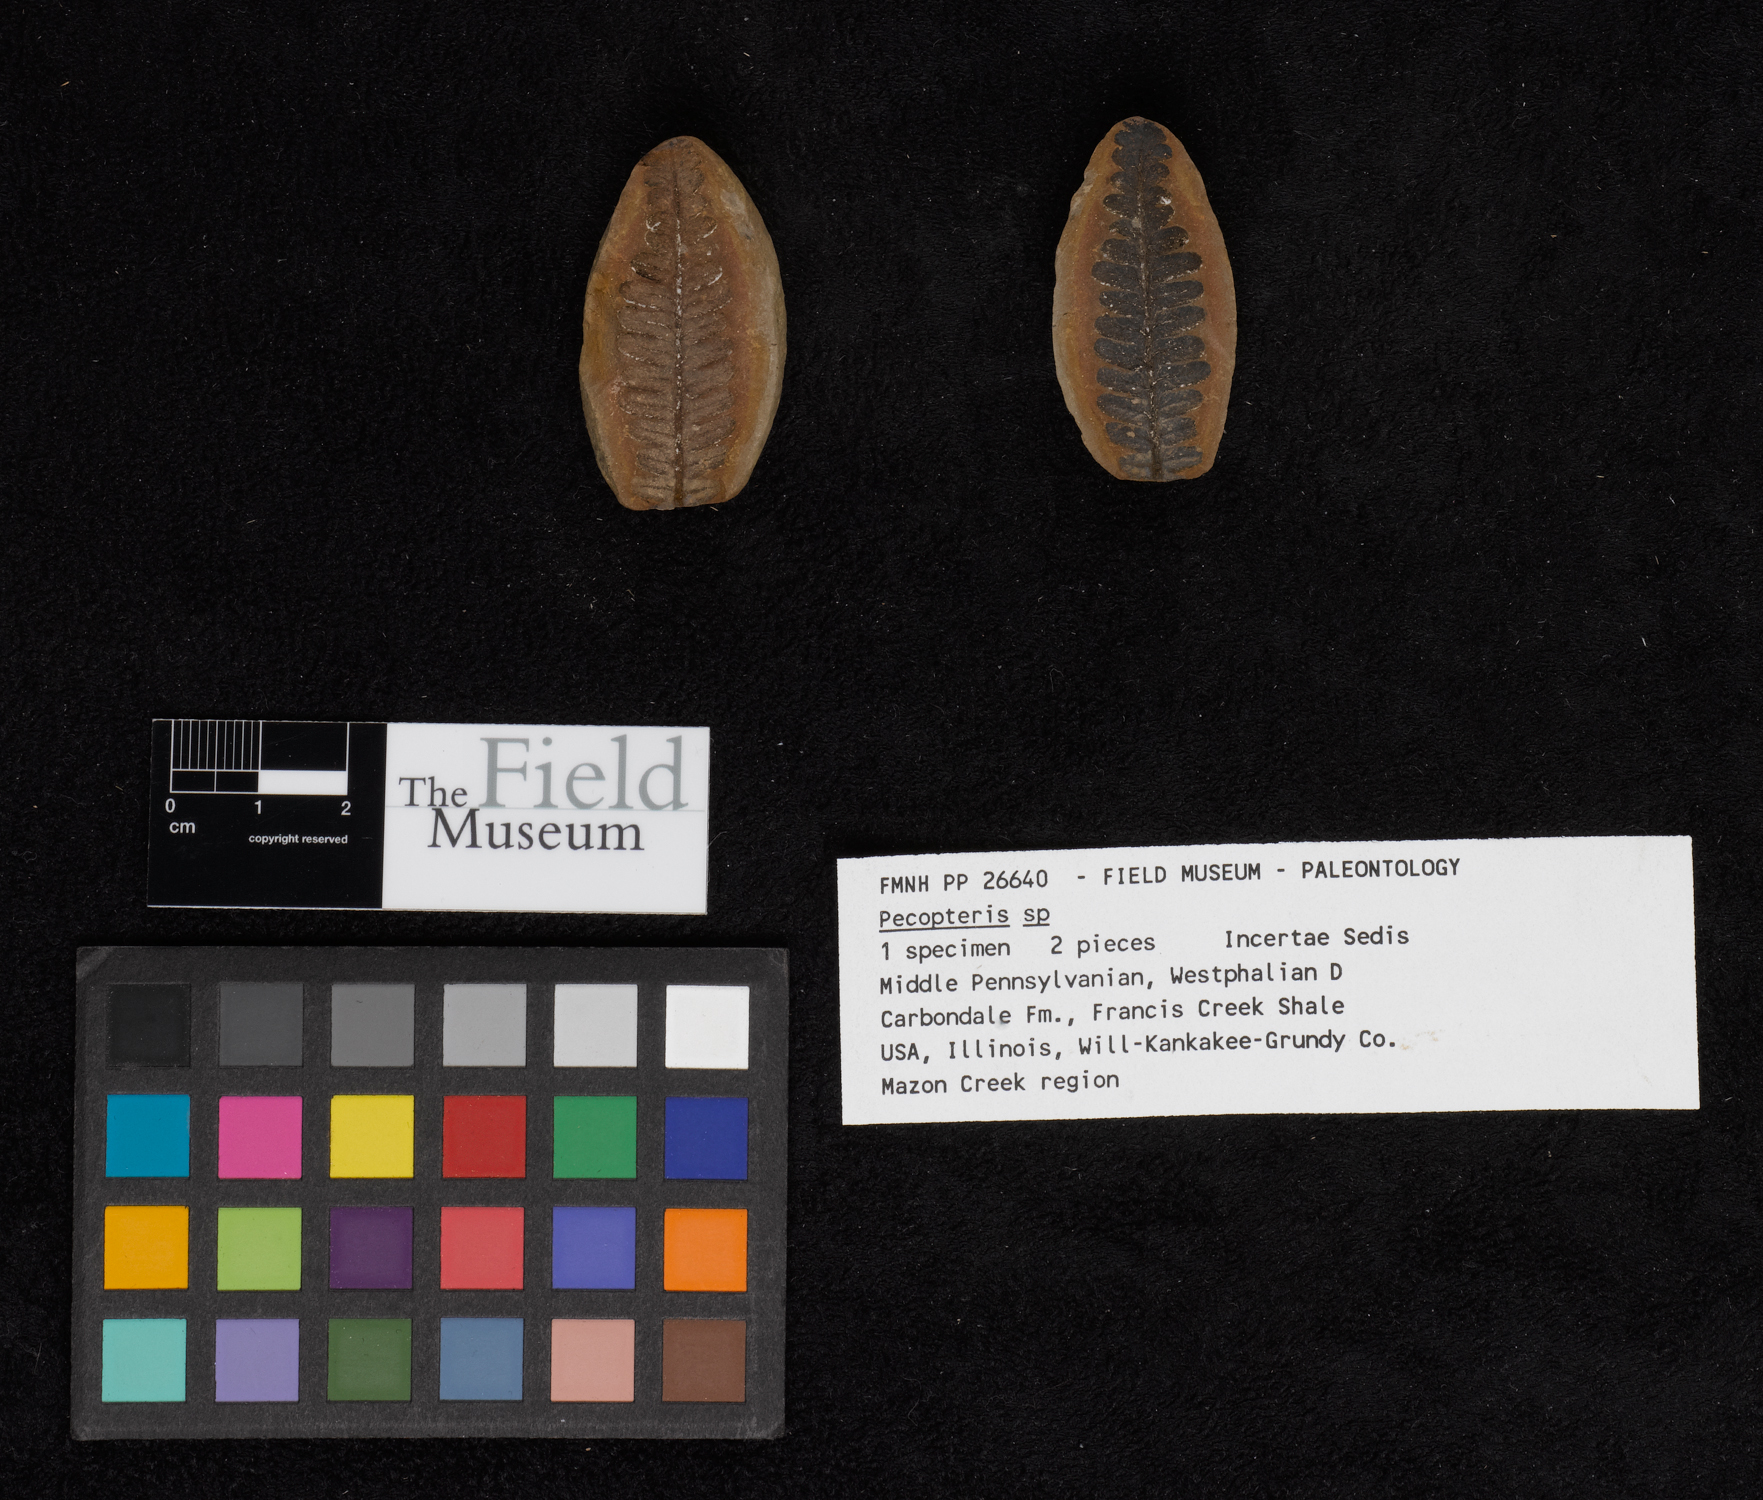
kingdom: Plantae
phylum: Tracheophyta
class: Polypodiopsida
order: Marattiales
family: Asterothecaceae
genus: Pecopteris
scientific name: Pecopteris
